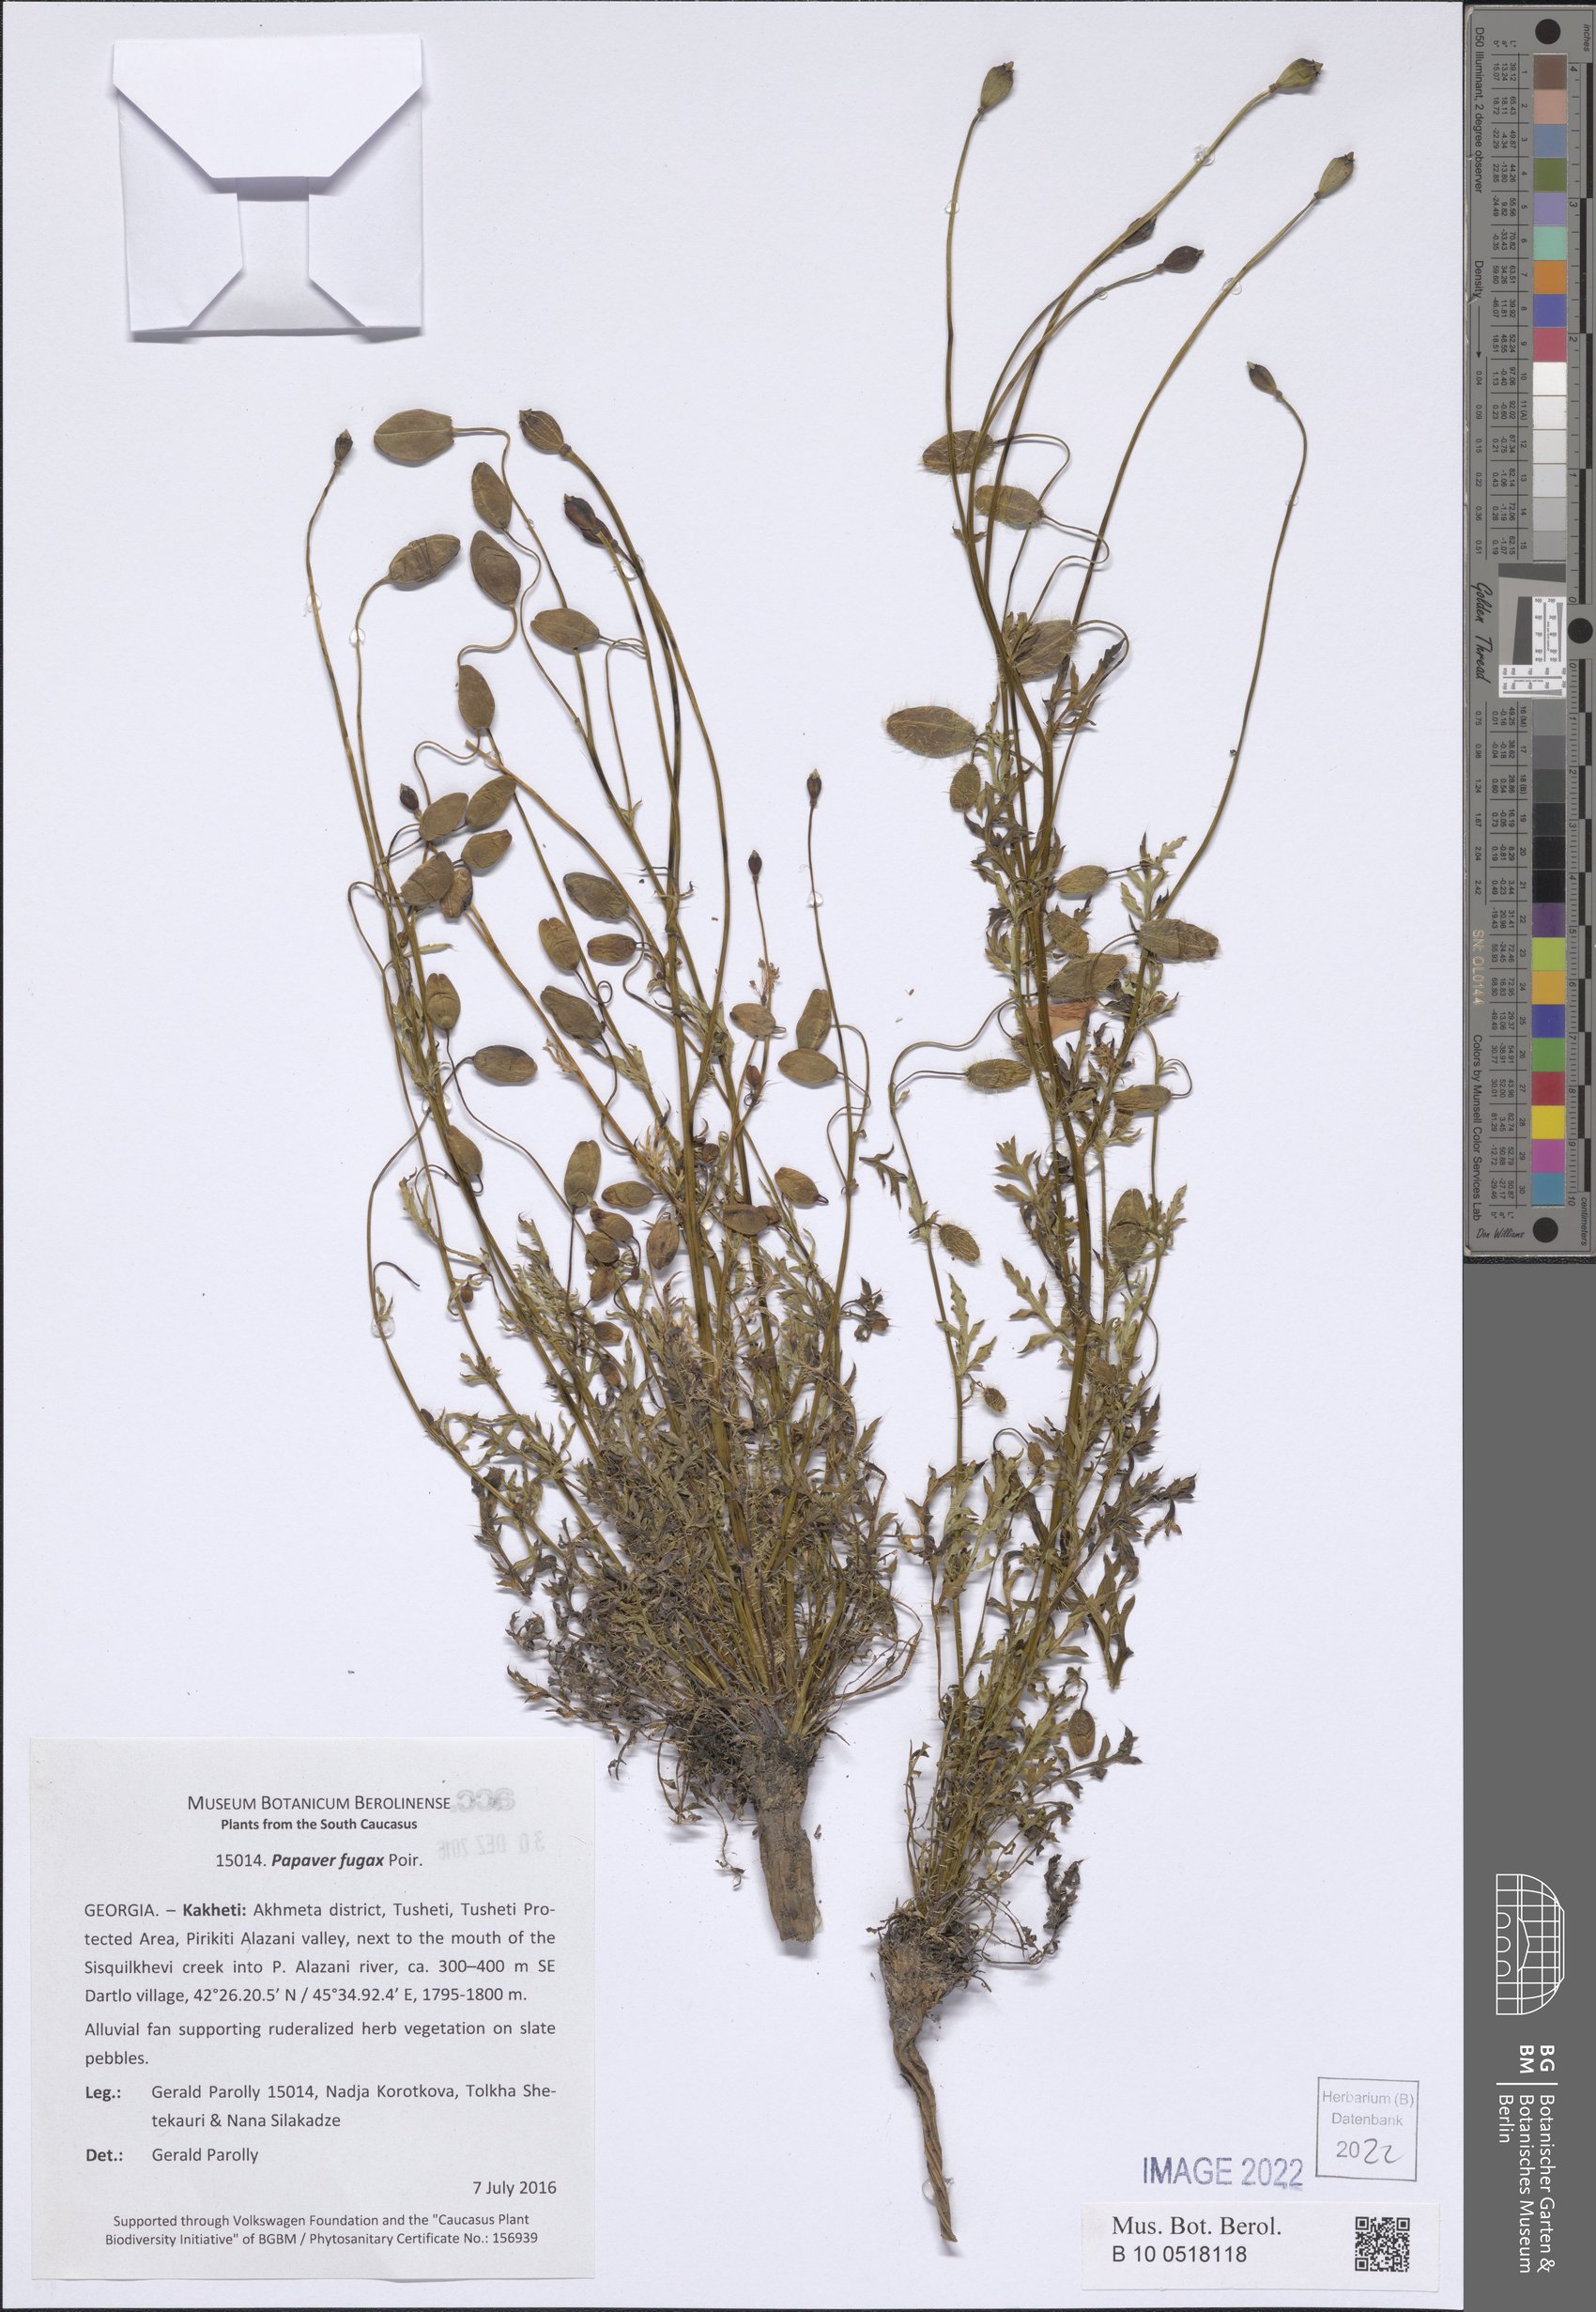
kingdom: Plantae
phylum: Tracheophyta
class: Magnoliopsida
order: Ranunculales
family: Papaveraceae
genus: Papaver
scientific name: Papaver armeniacum
